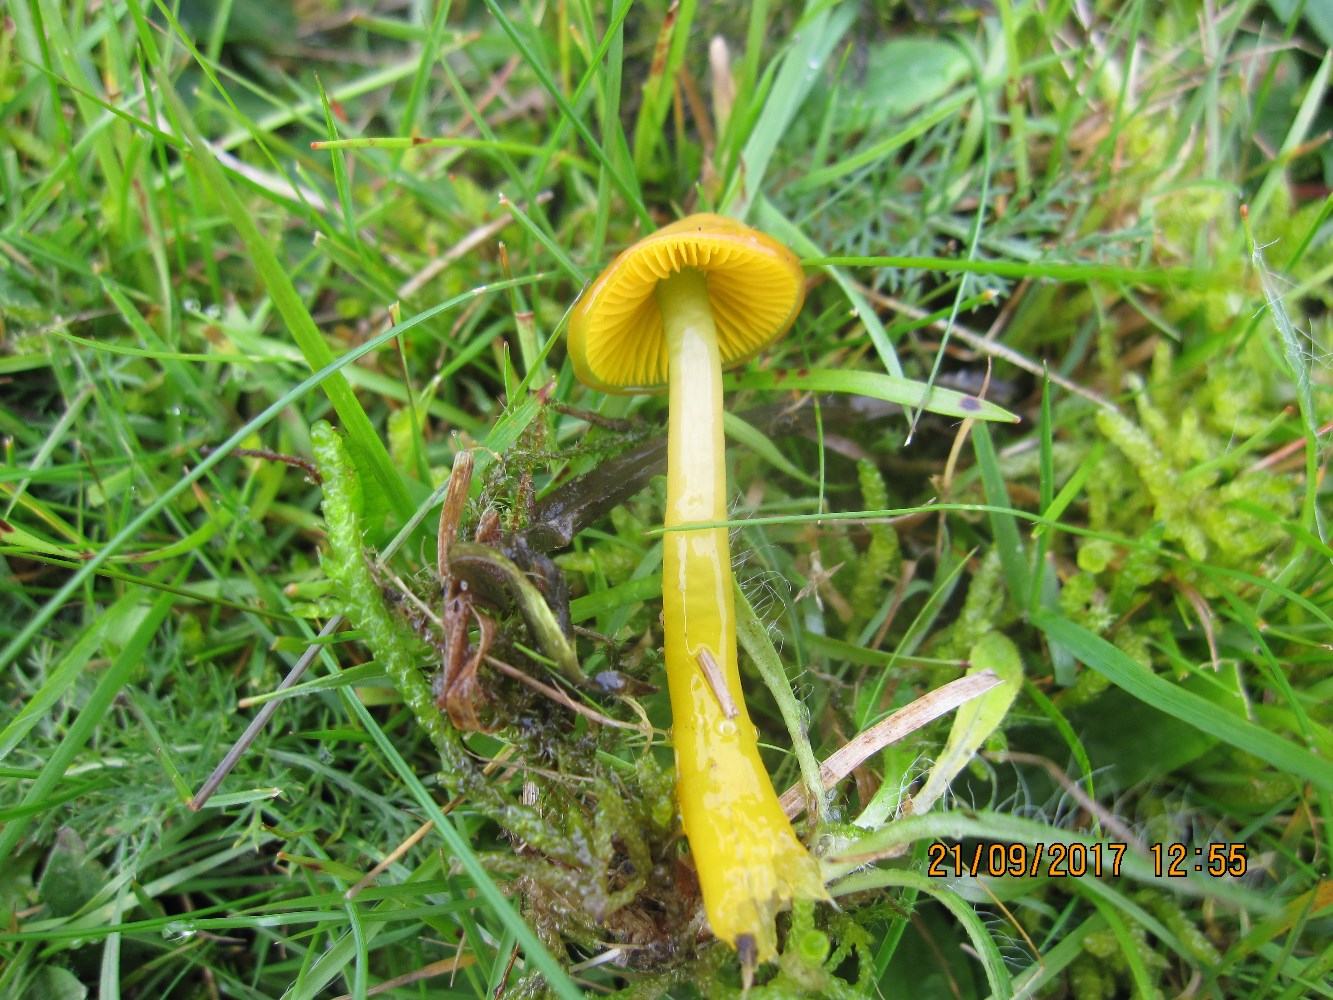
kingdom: Fungi
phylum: Basidiomycota
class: Agaricomycetes
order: Agaricales
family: Hygrophoraceae
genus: Gliophorus
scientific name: Gliophorus psittacinus
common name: papegøje-vokshat
